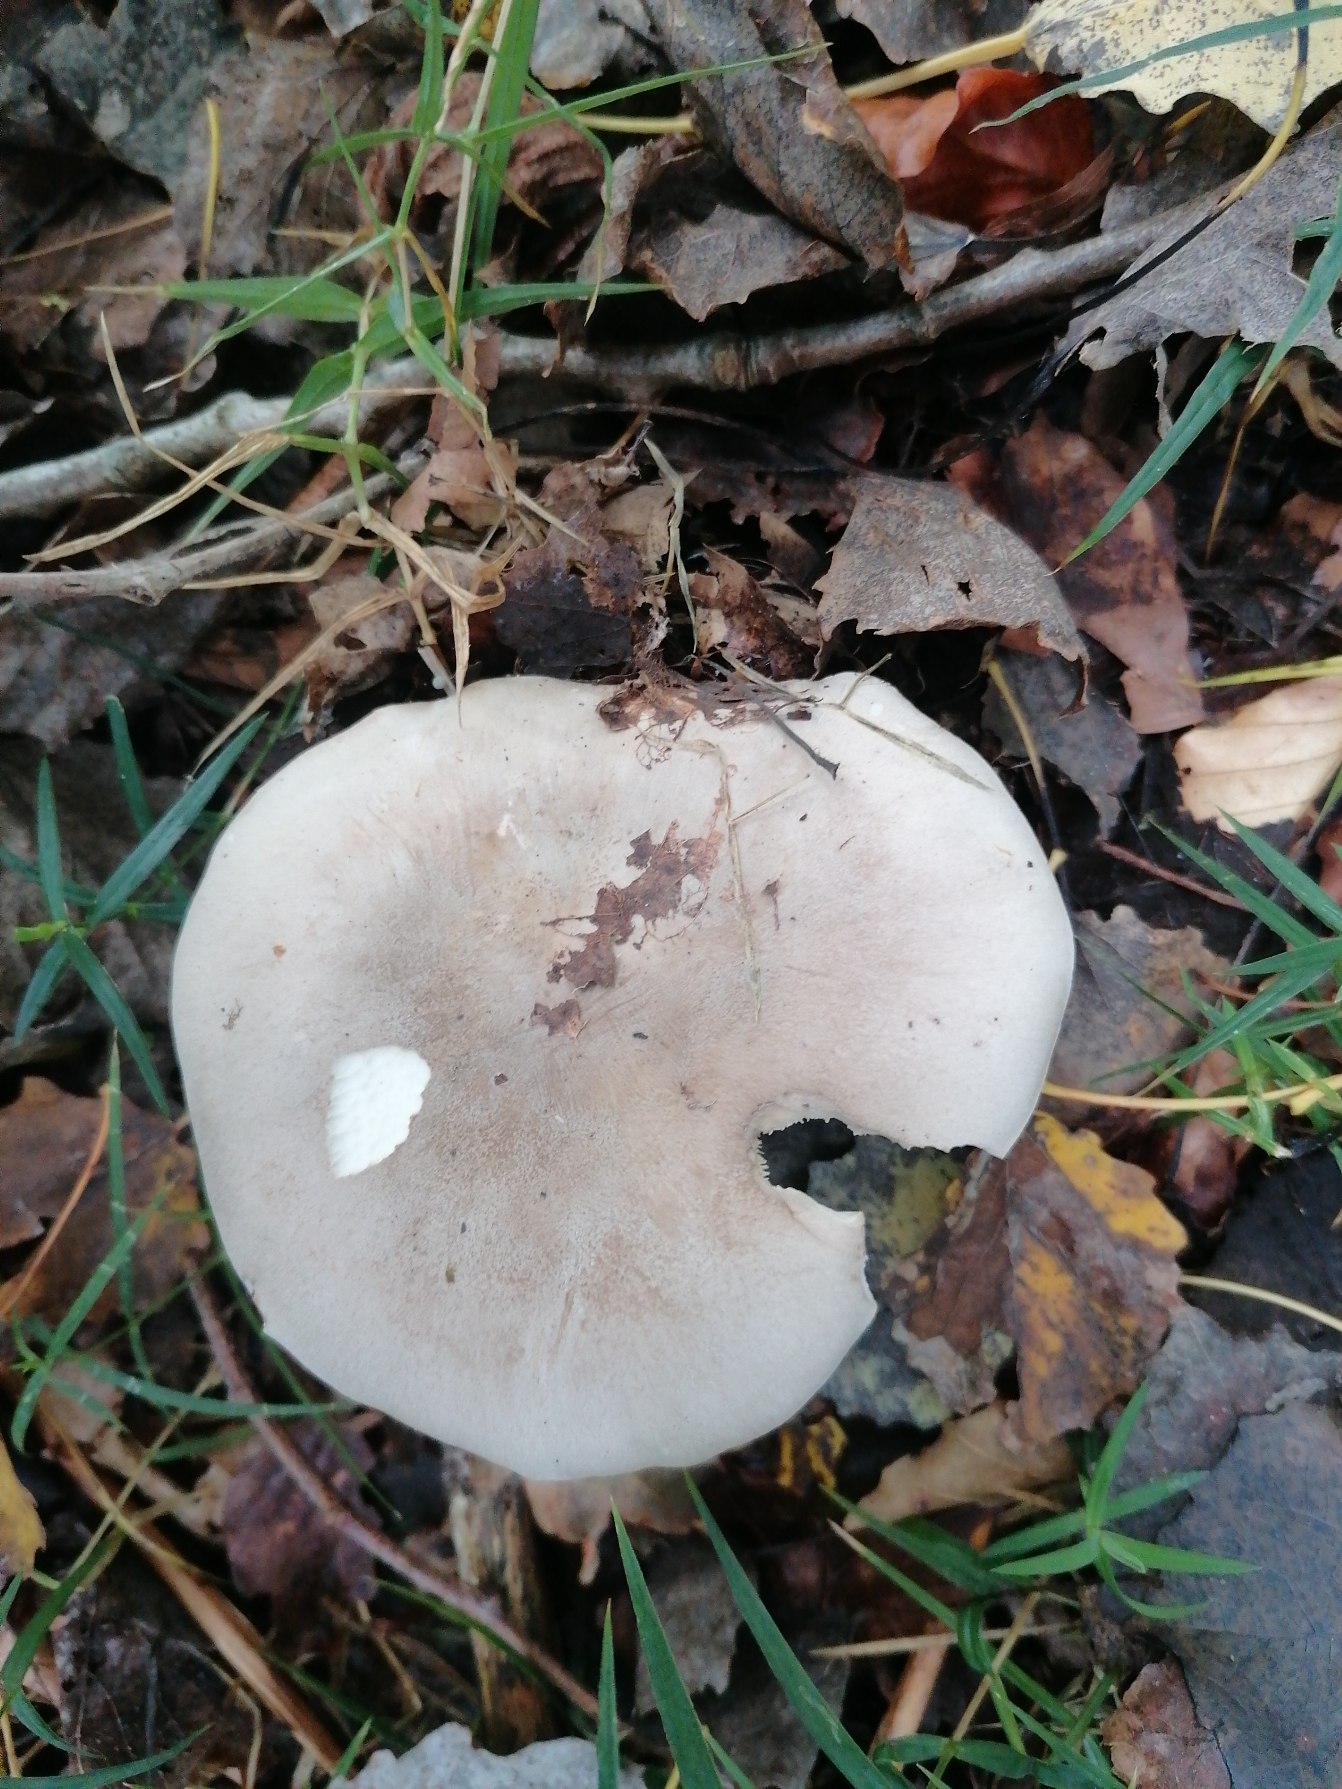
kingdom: Fungi
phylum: Basidiomycota
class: Agaricomycetes
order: Agaricales
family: Tricholomataceae
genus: Clitocybe
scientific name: Clitocybe nebularis
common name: Tåge-tragthat
